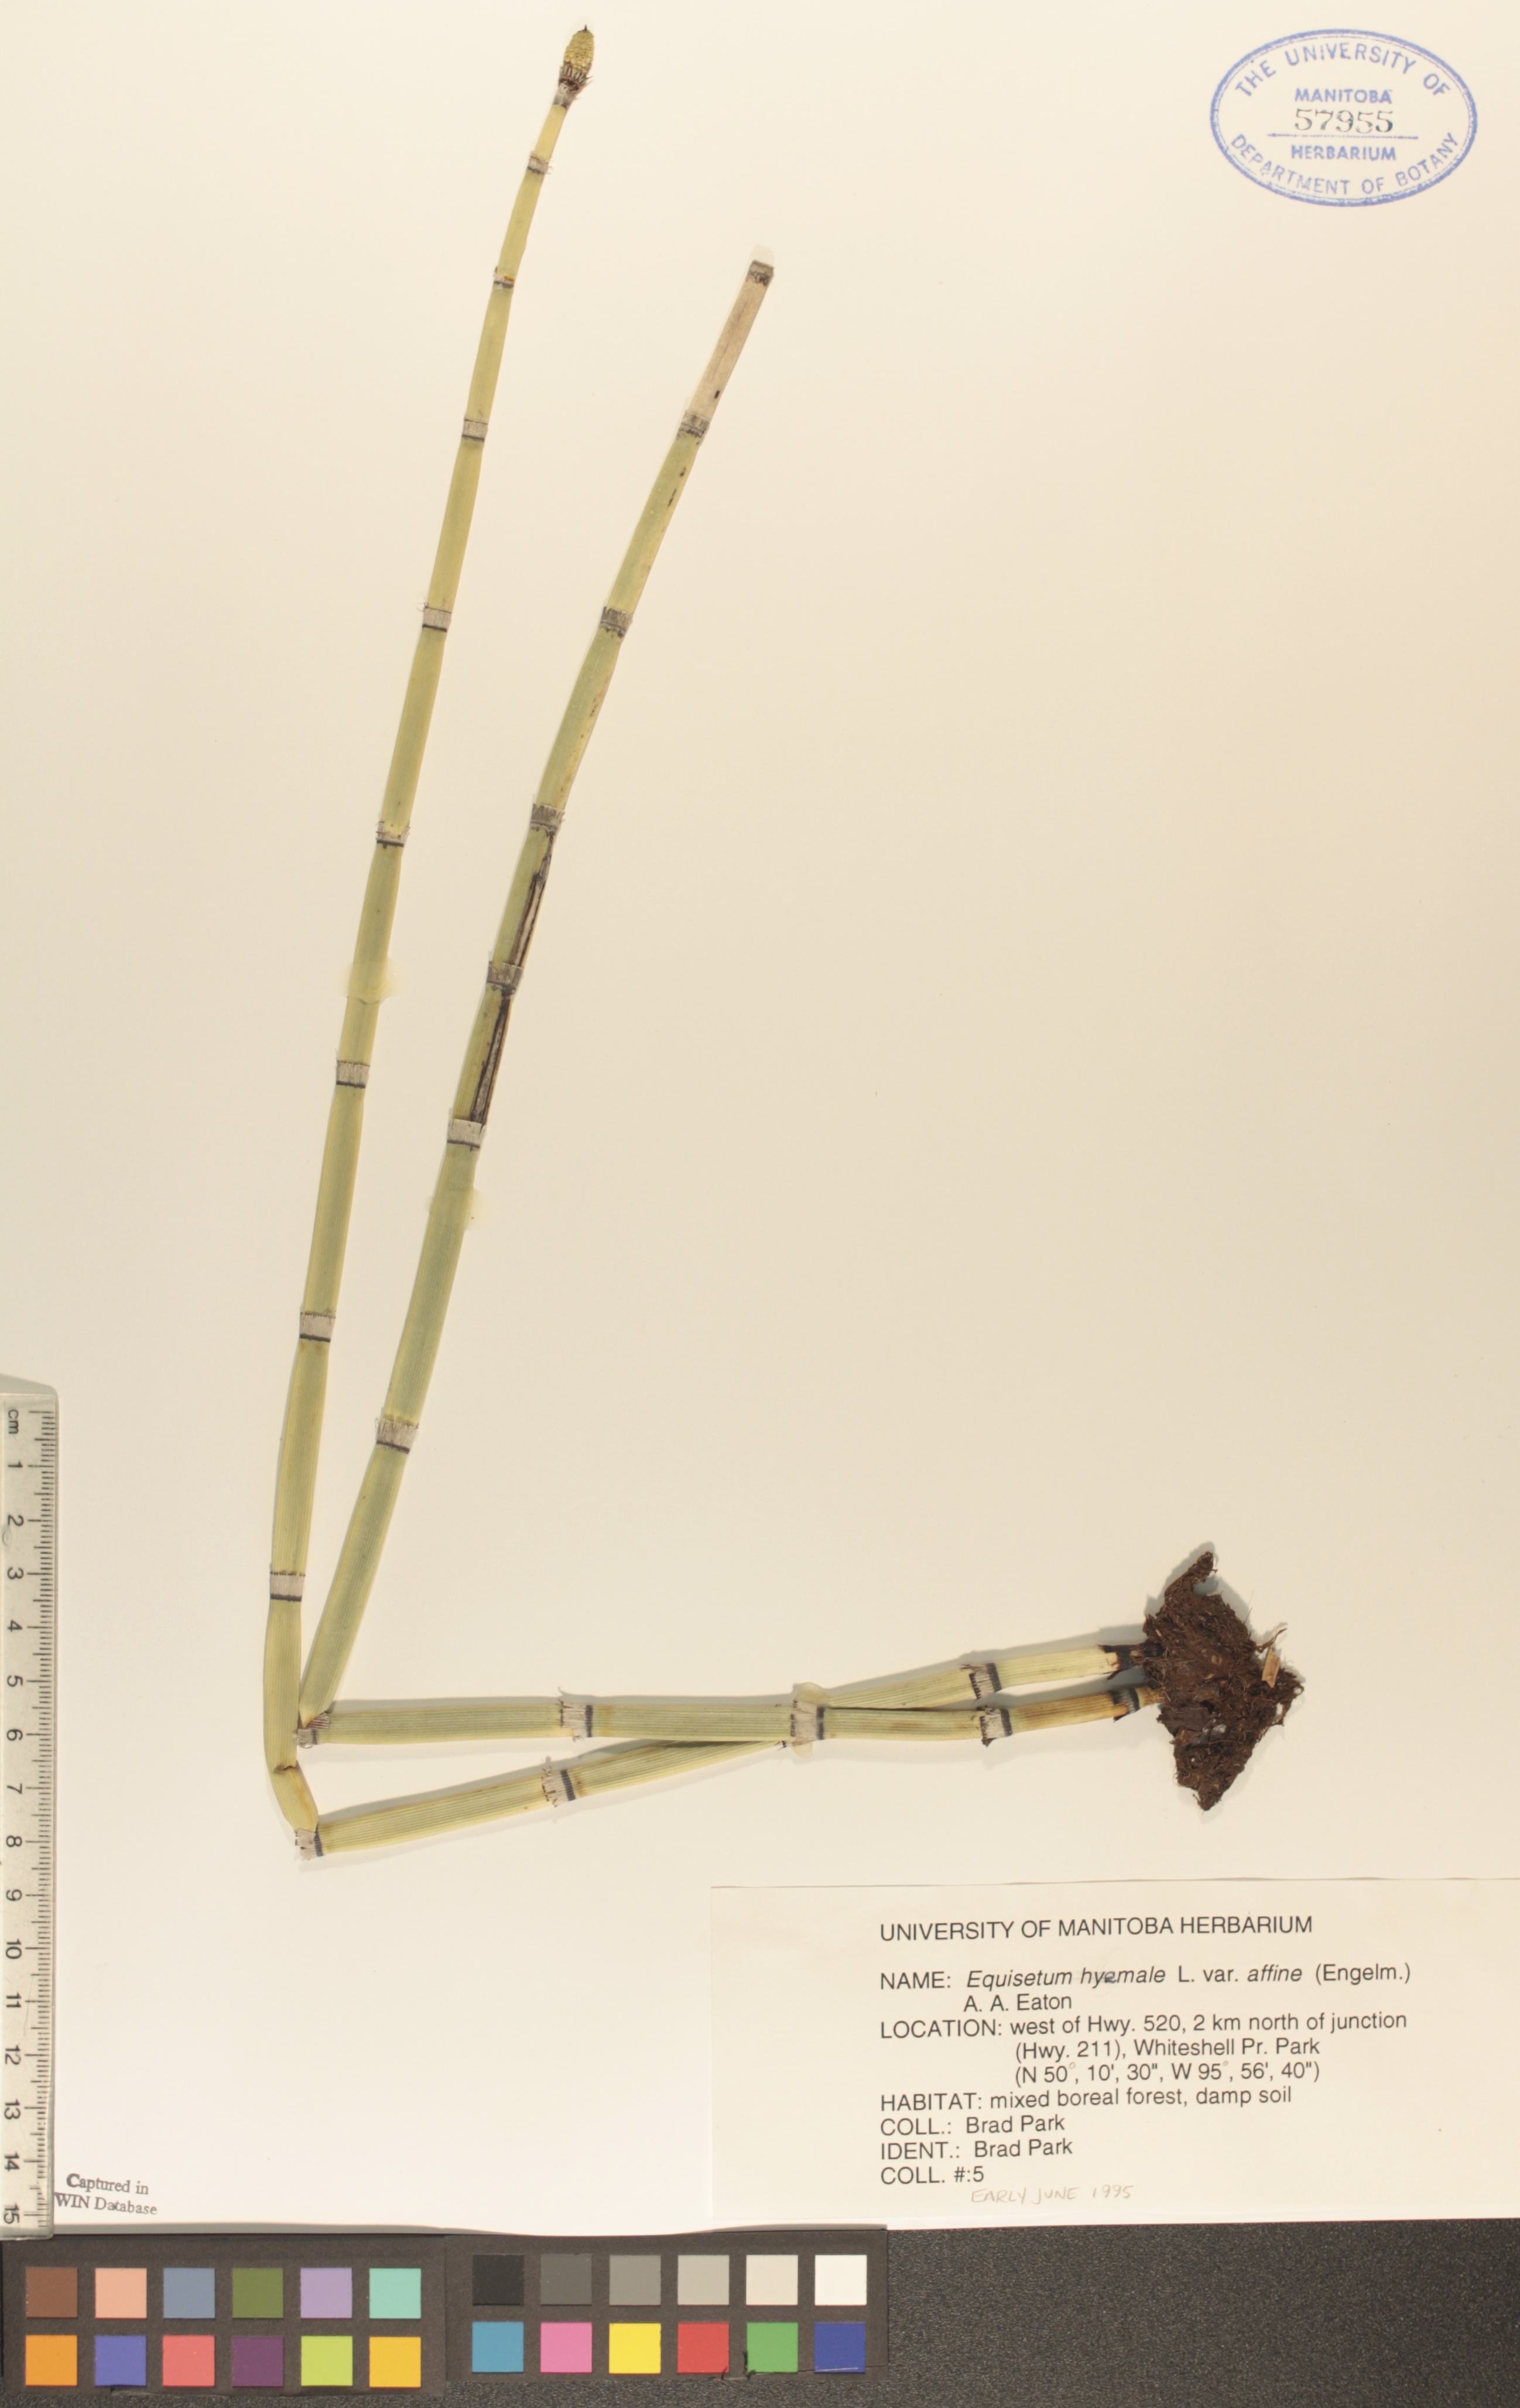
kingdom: Plantae
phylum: Tracheophyta
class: Polypodiopsida
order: Equisetales
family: Equisetaceae
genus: Equisetum
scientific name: Equisetum praealtum
